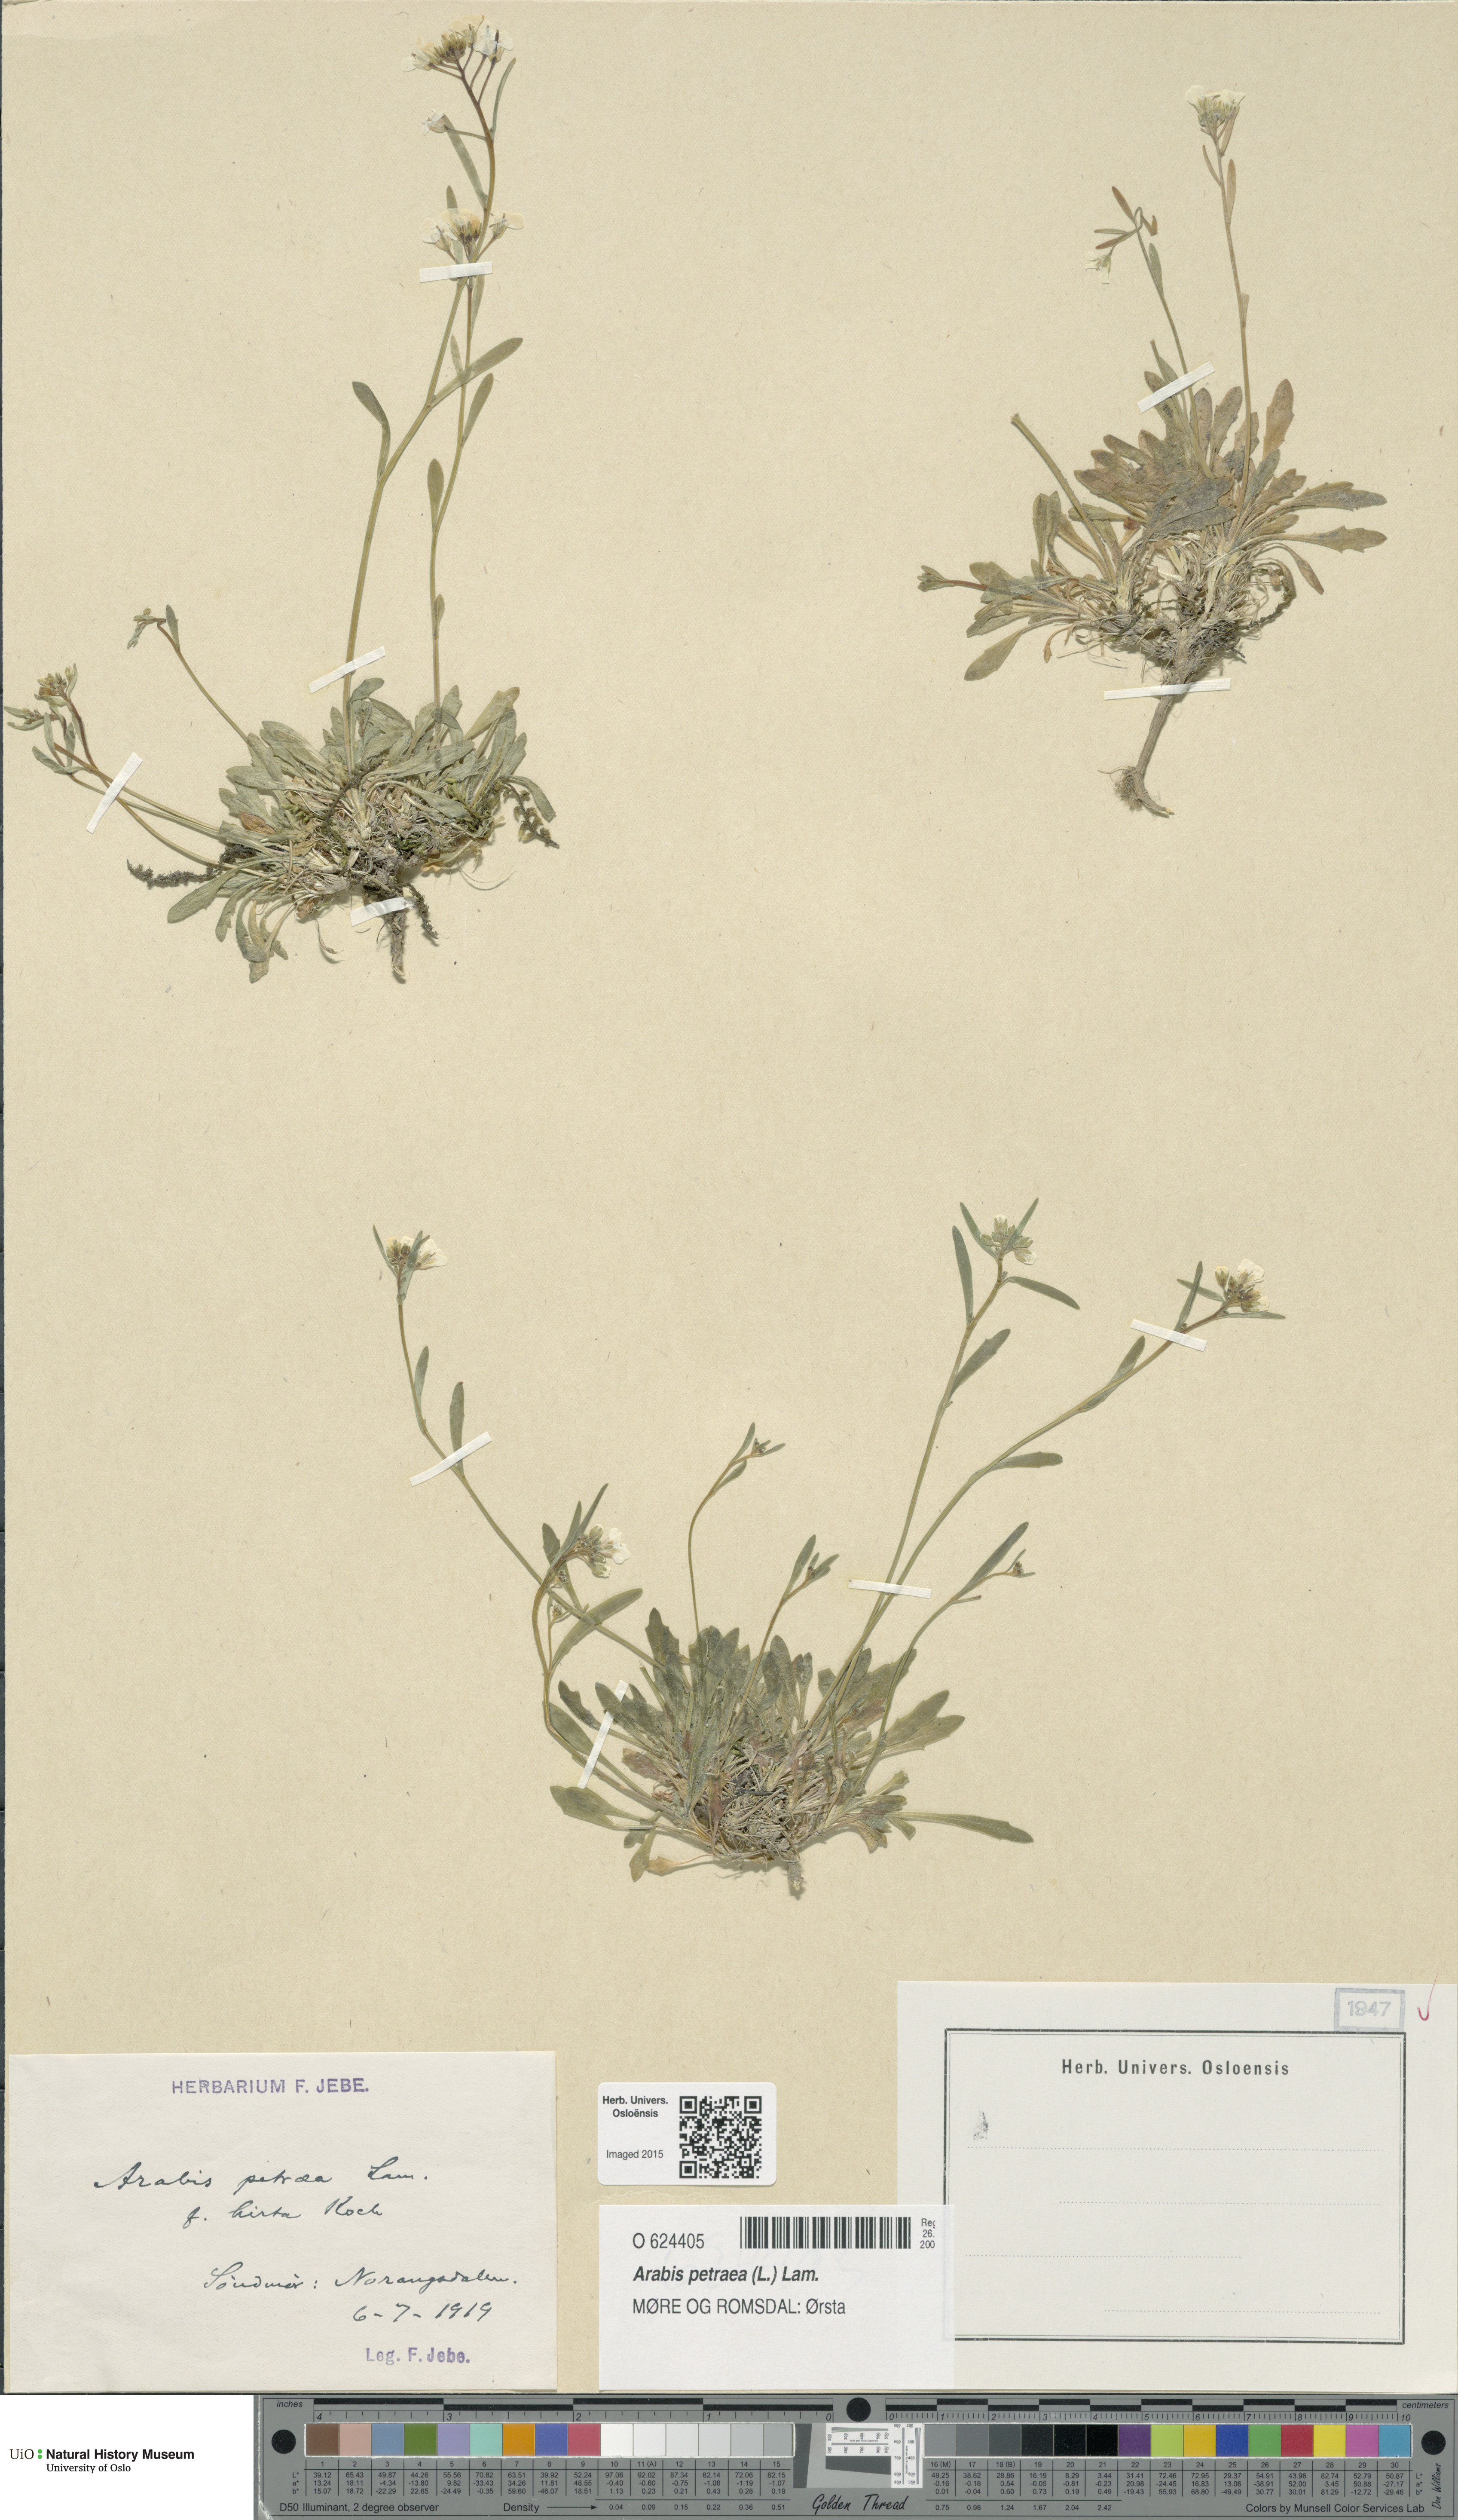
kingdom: Plantae
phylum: Tracheophyta
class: Magnoliopsida
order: Brassicales
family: Brassicaceae
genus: Arabidopsis
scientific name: Arabidopsis petraea
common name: Northern rock-cress
